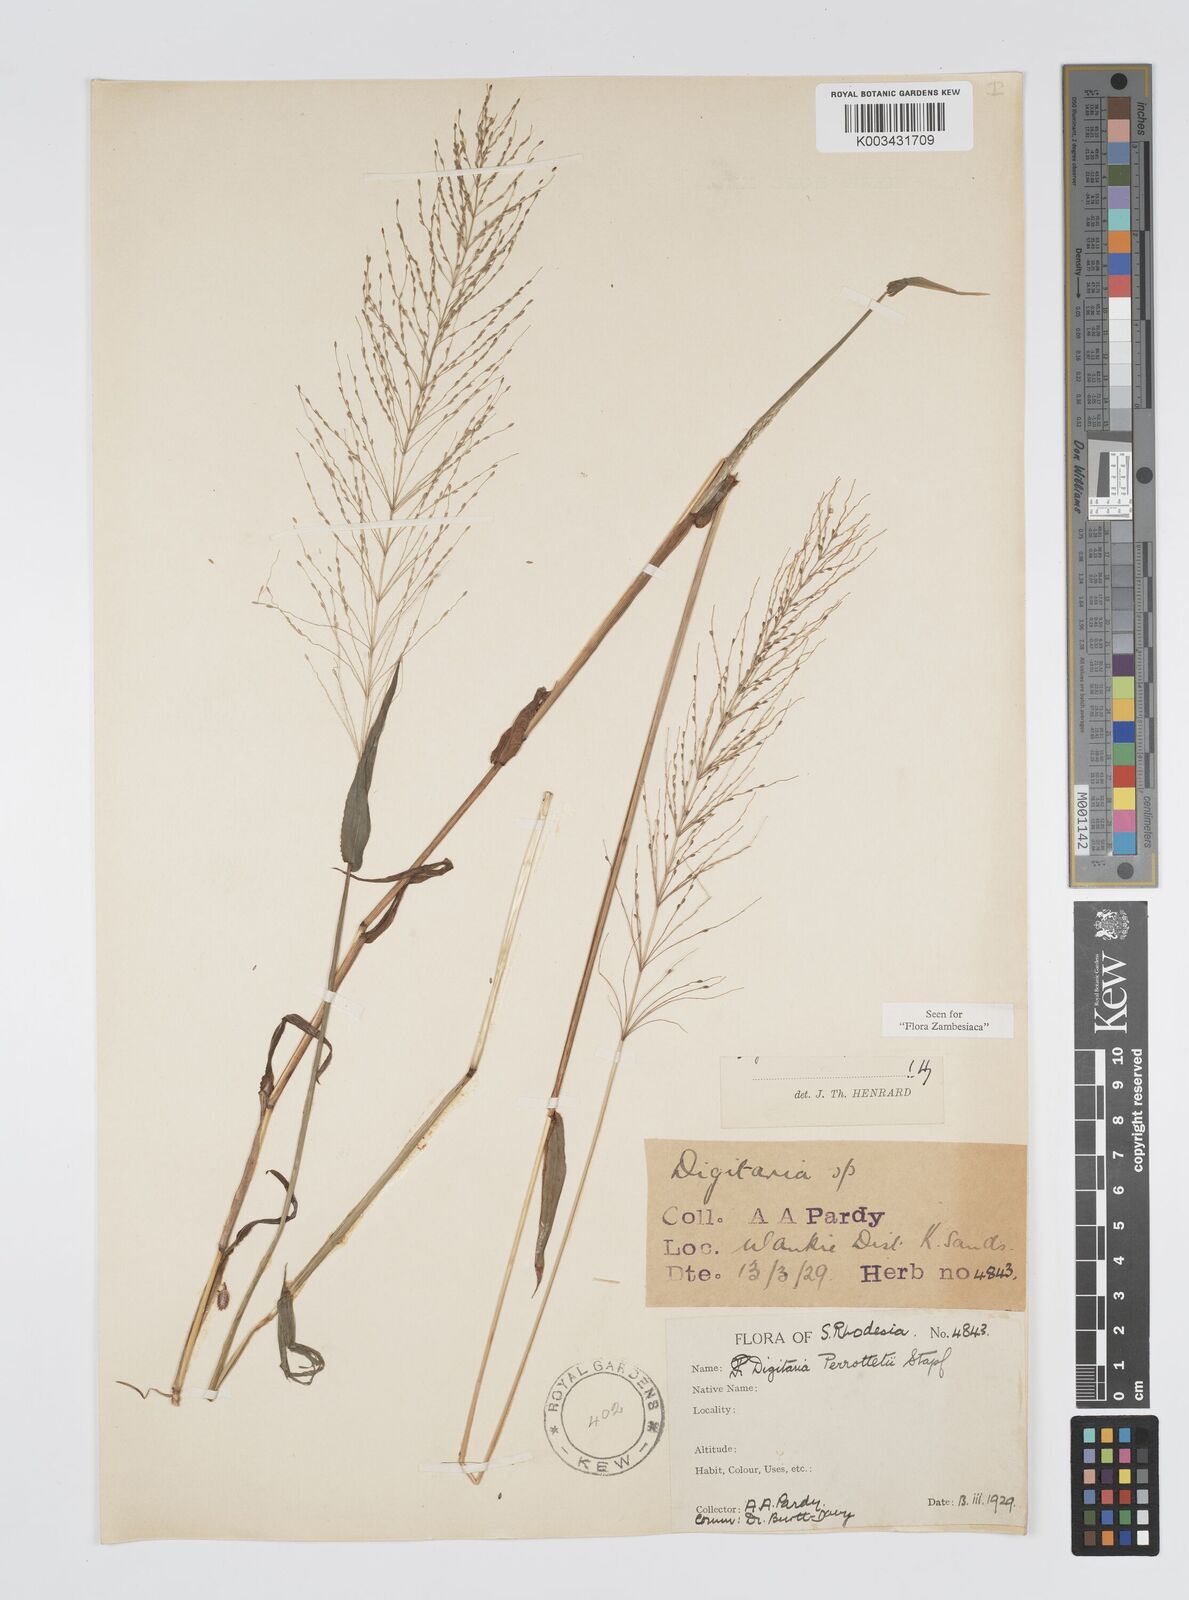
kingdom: Plantae
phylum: Tracheophyta
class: Liliopsida
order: Poales
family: Poaceae
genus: Digitaria
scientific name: Digitaria perrottetii
